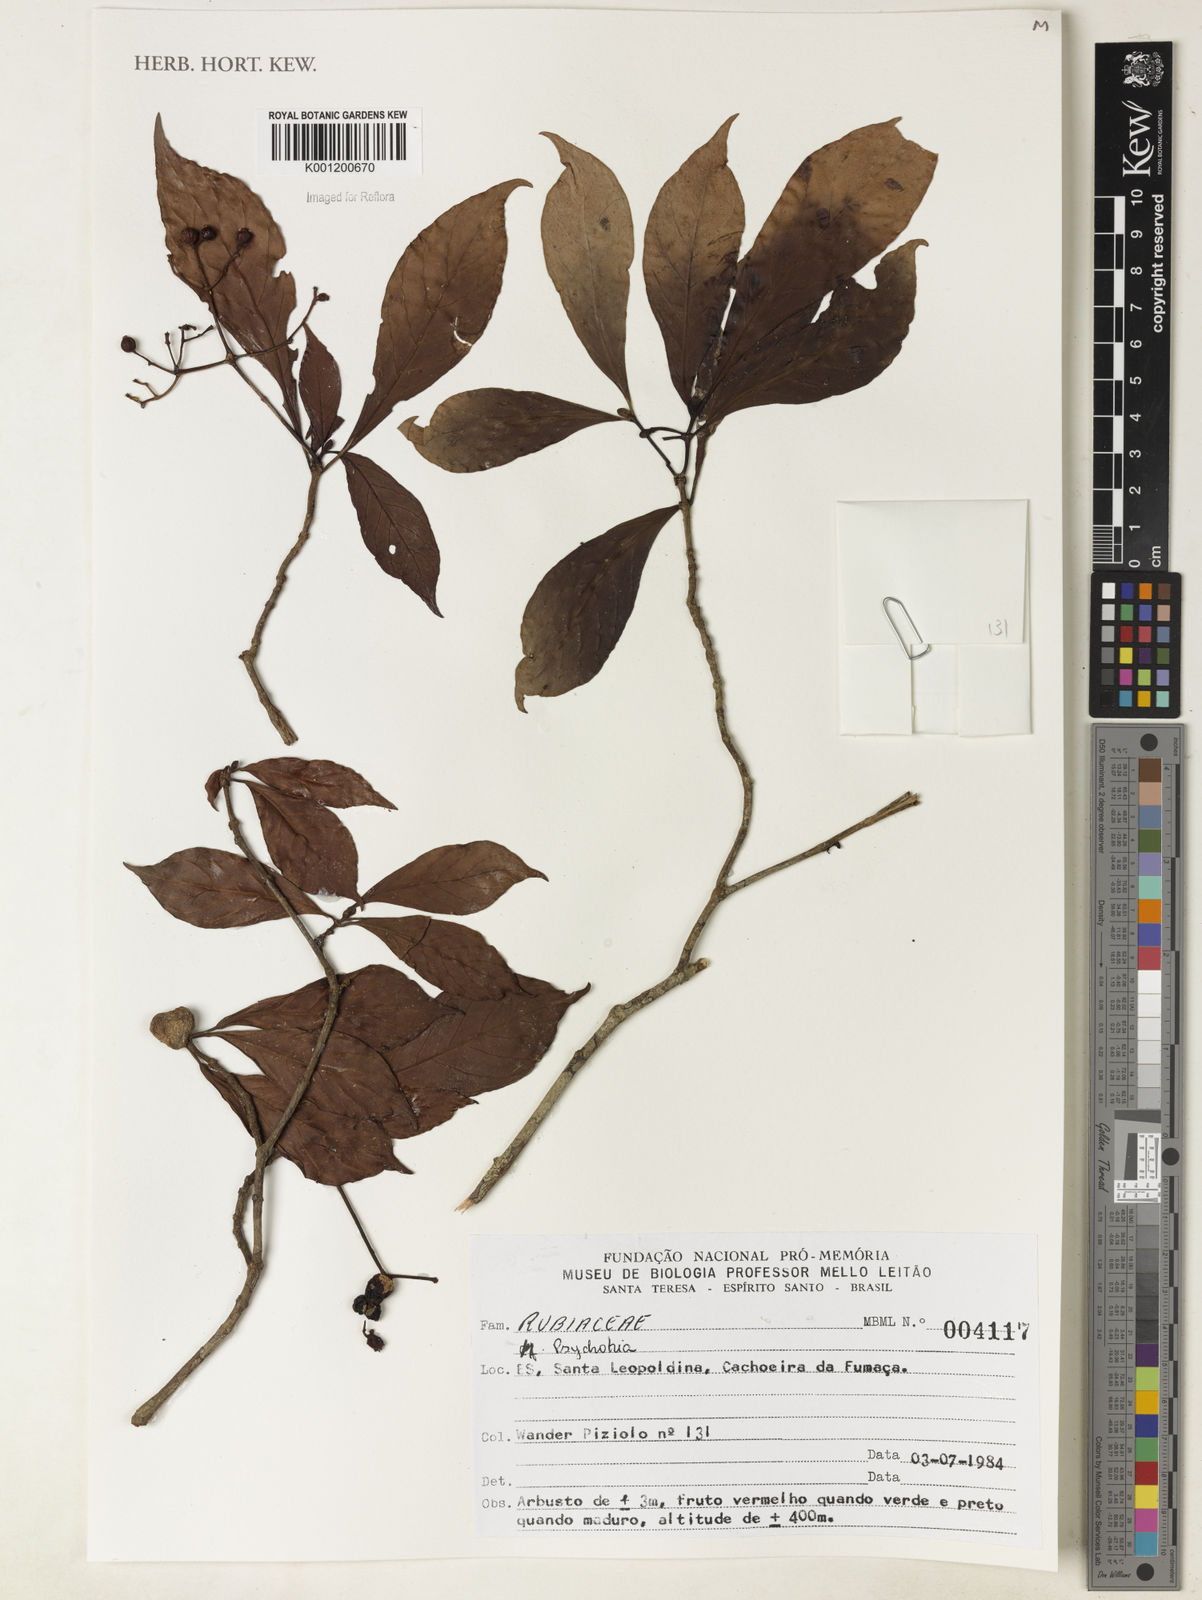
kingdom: Plantae
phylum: Tracheophyta
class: Magnoliopsida
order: Gentianales
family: Rubiaceae
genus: Psychotria
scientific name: Psychotria
